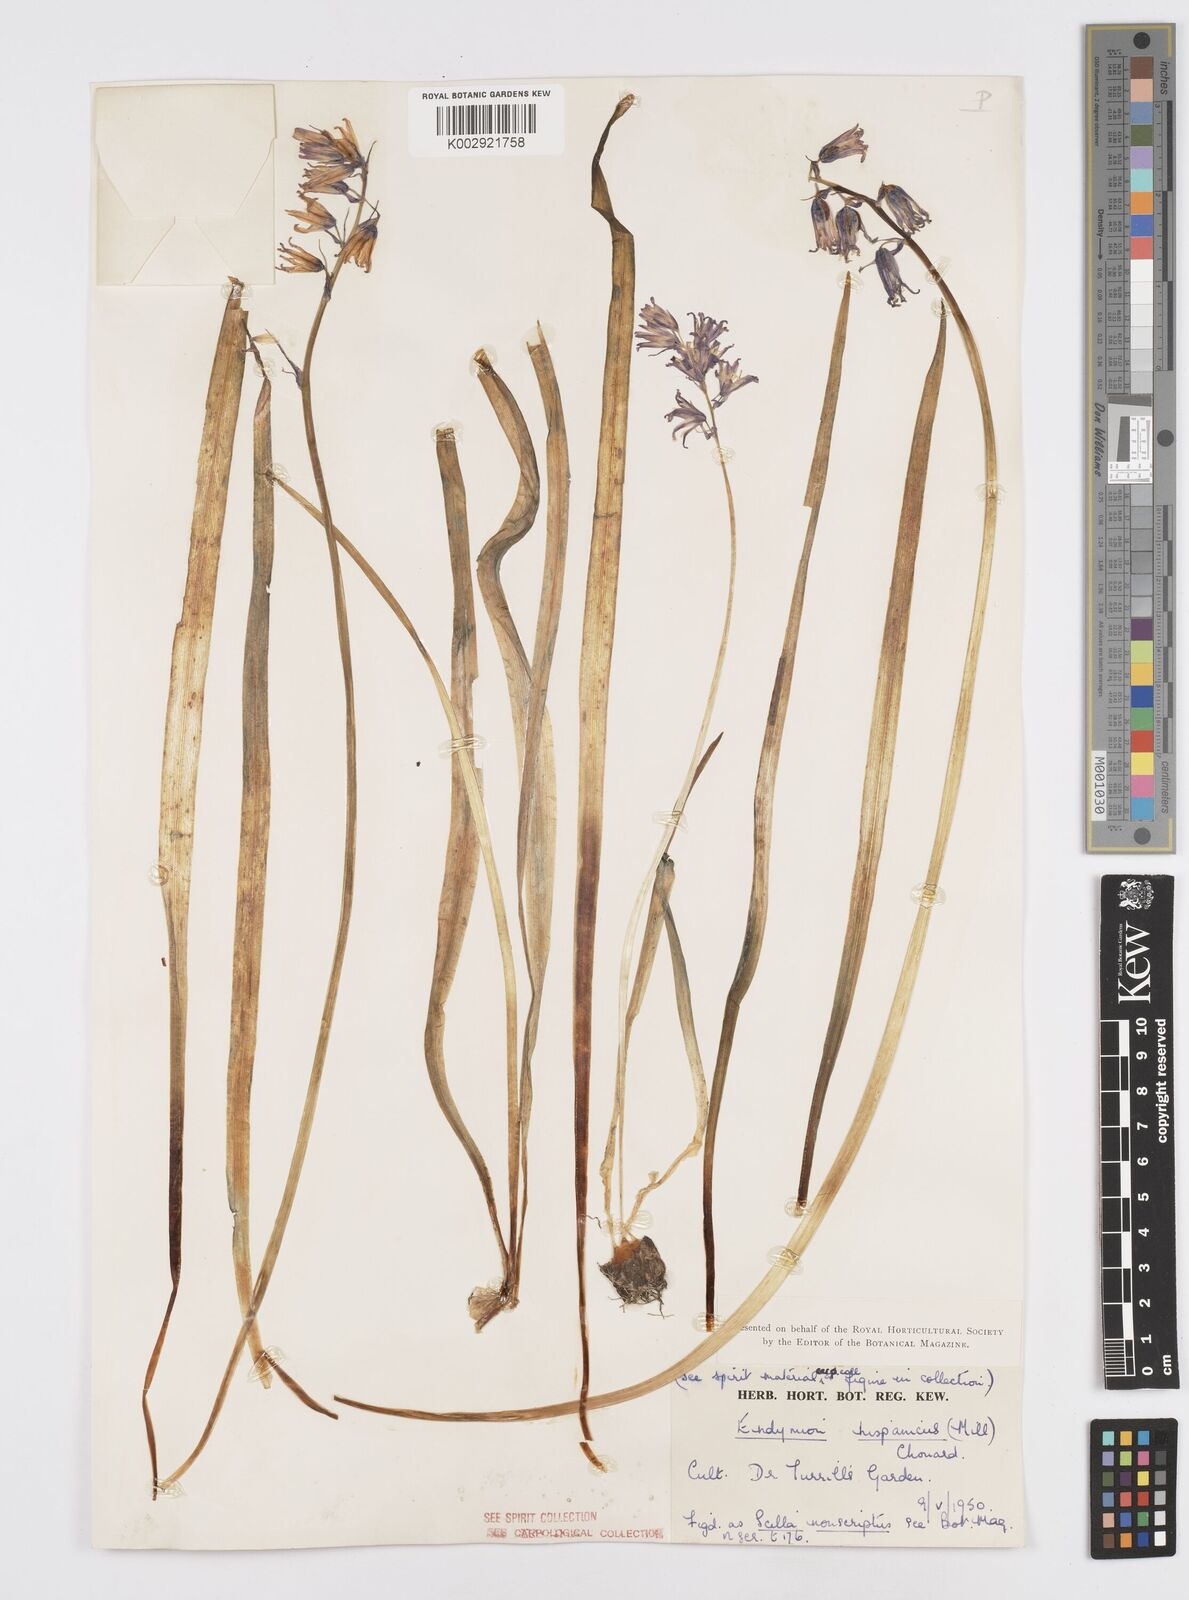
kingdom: Plantae
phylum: Tracheophyta
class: Liliopsida
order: Asparagales
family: Asparagaceae
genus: Hyacinthoides
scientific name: Hyacinthoides hispanica
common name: Spanish bluebell
